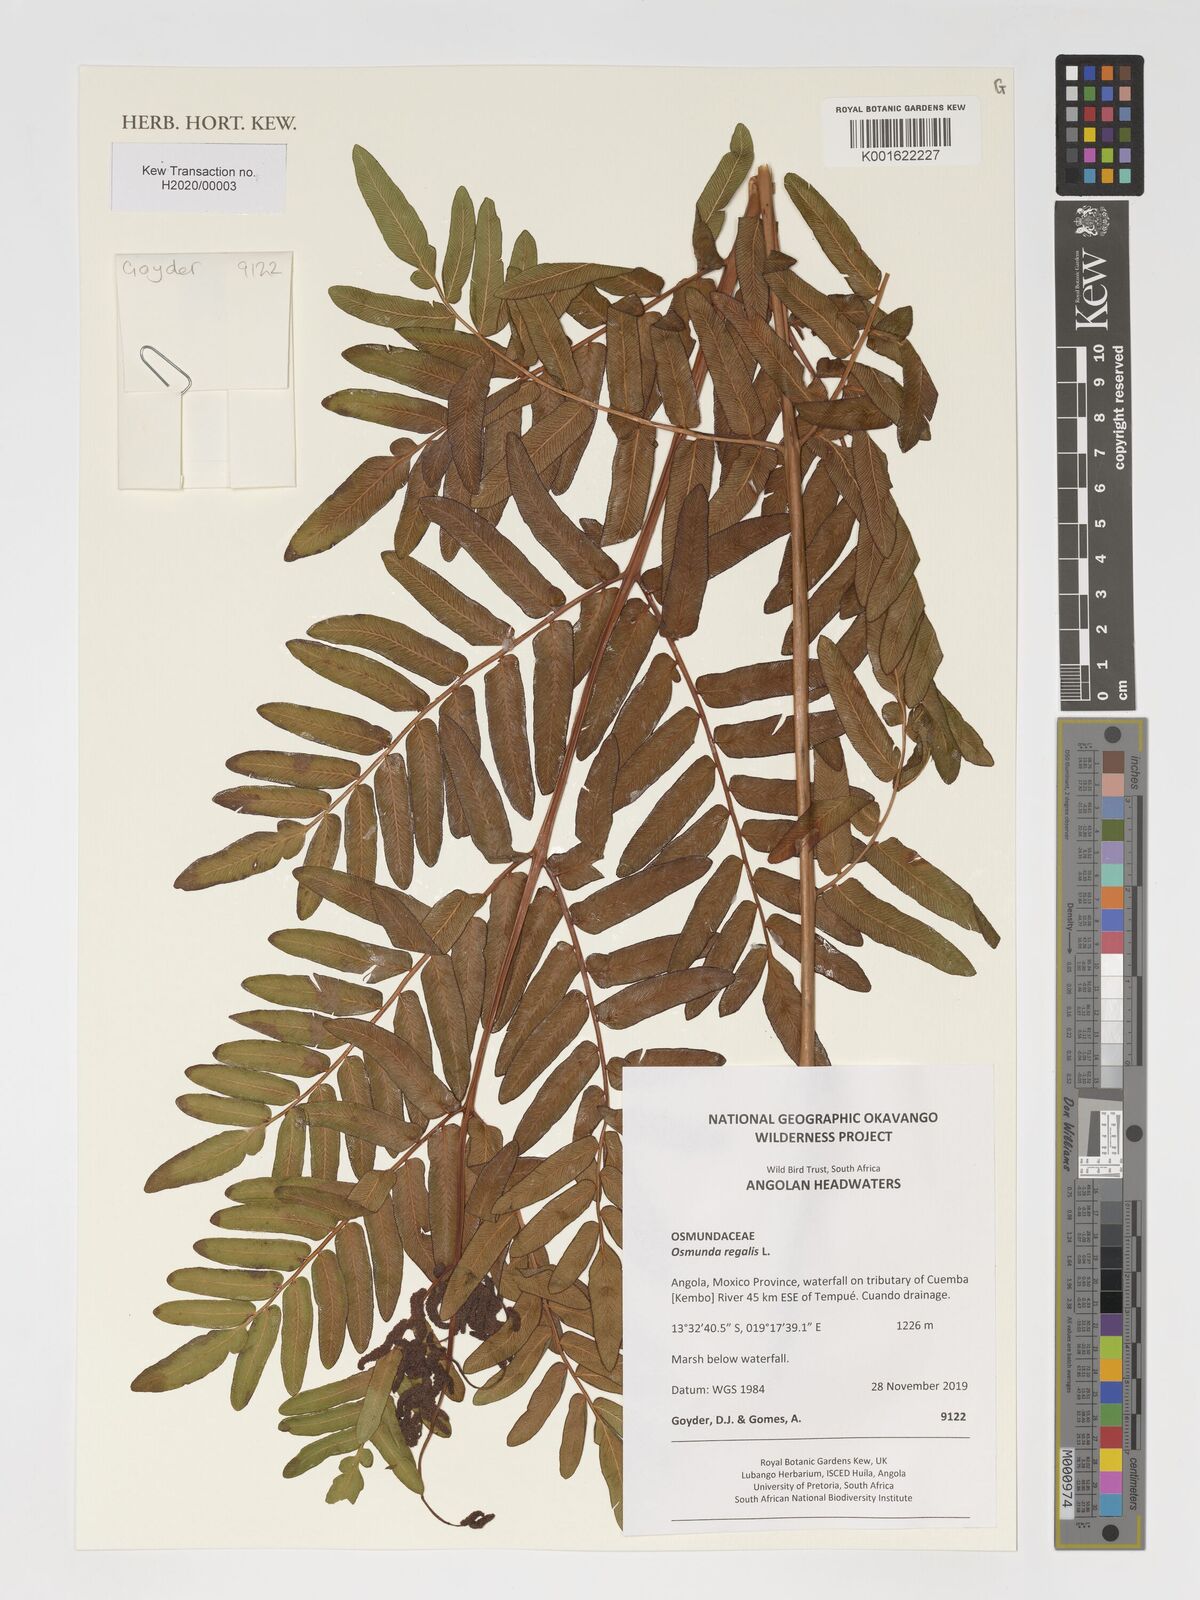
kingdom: Plantae
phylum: Tracheophyta
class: Polypodiopsida
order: Osmundales
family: Osmundaceae
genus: Osmunda
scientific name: Osmunda regalis
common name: Royal fern
